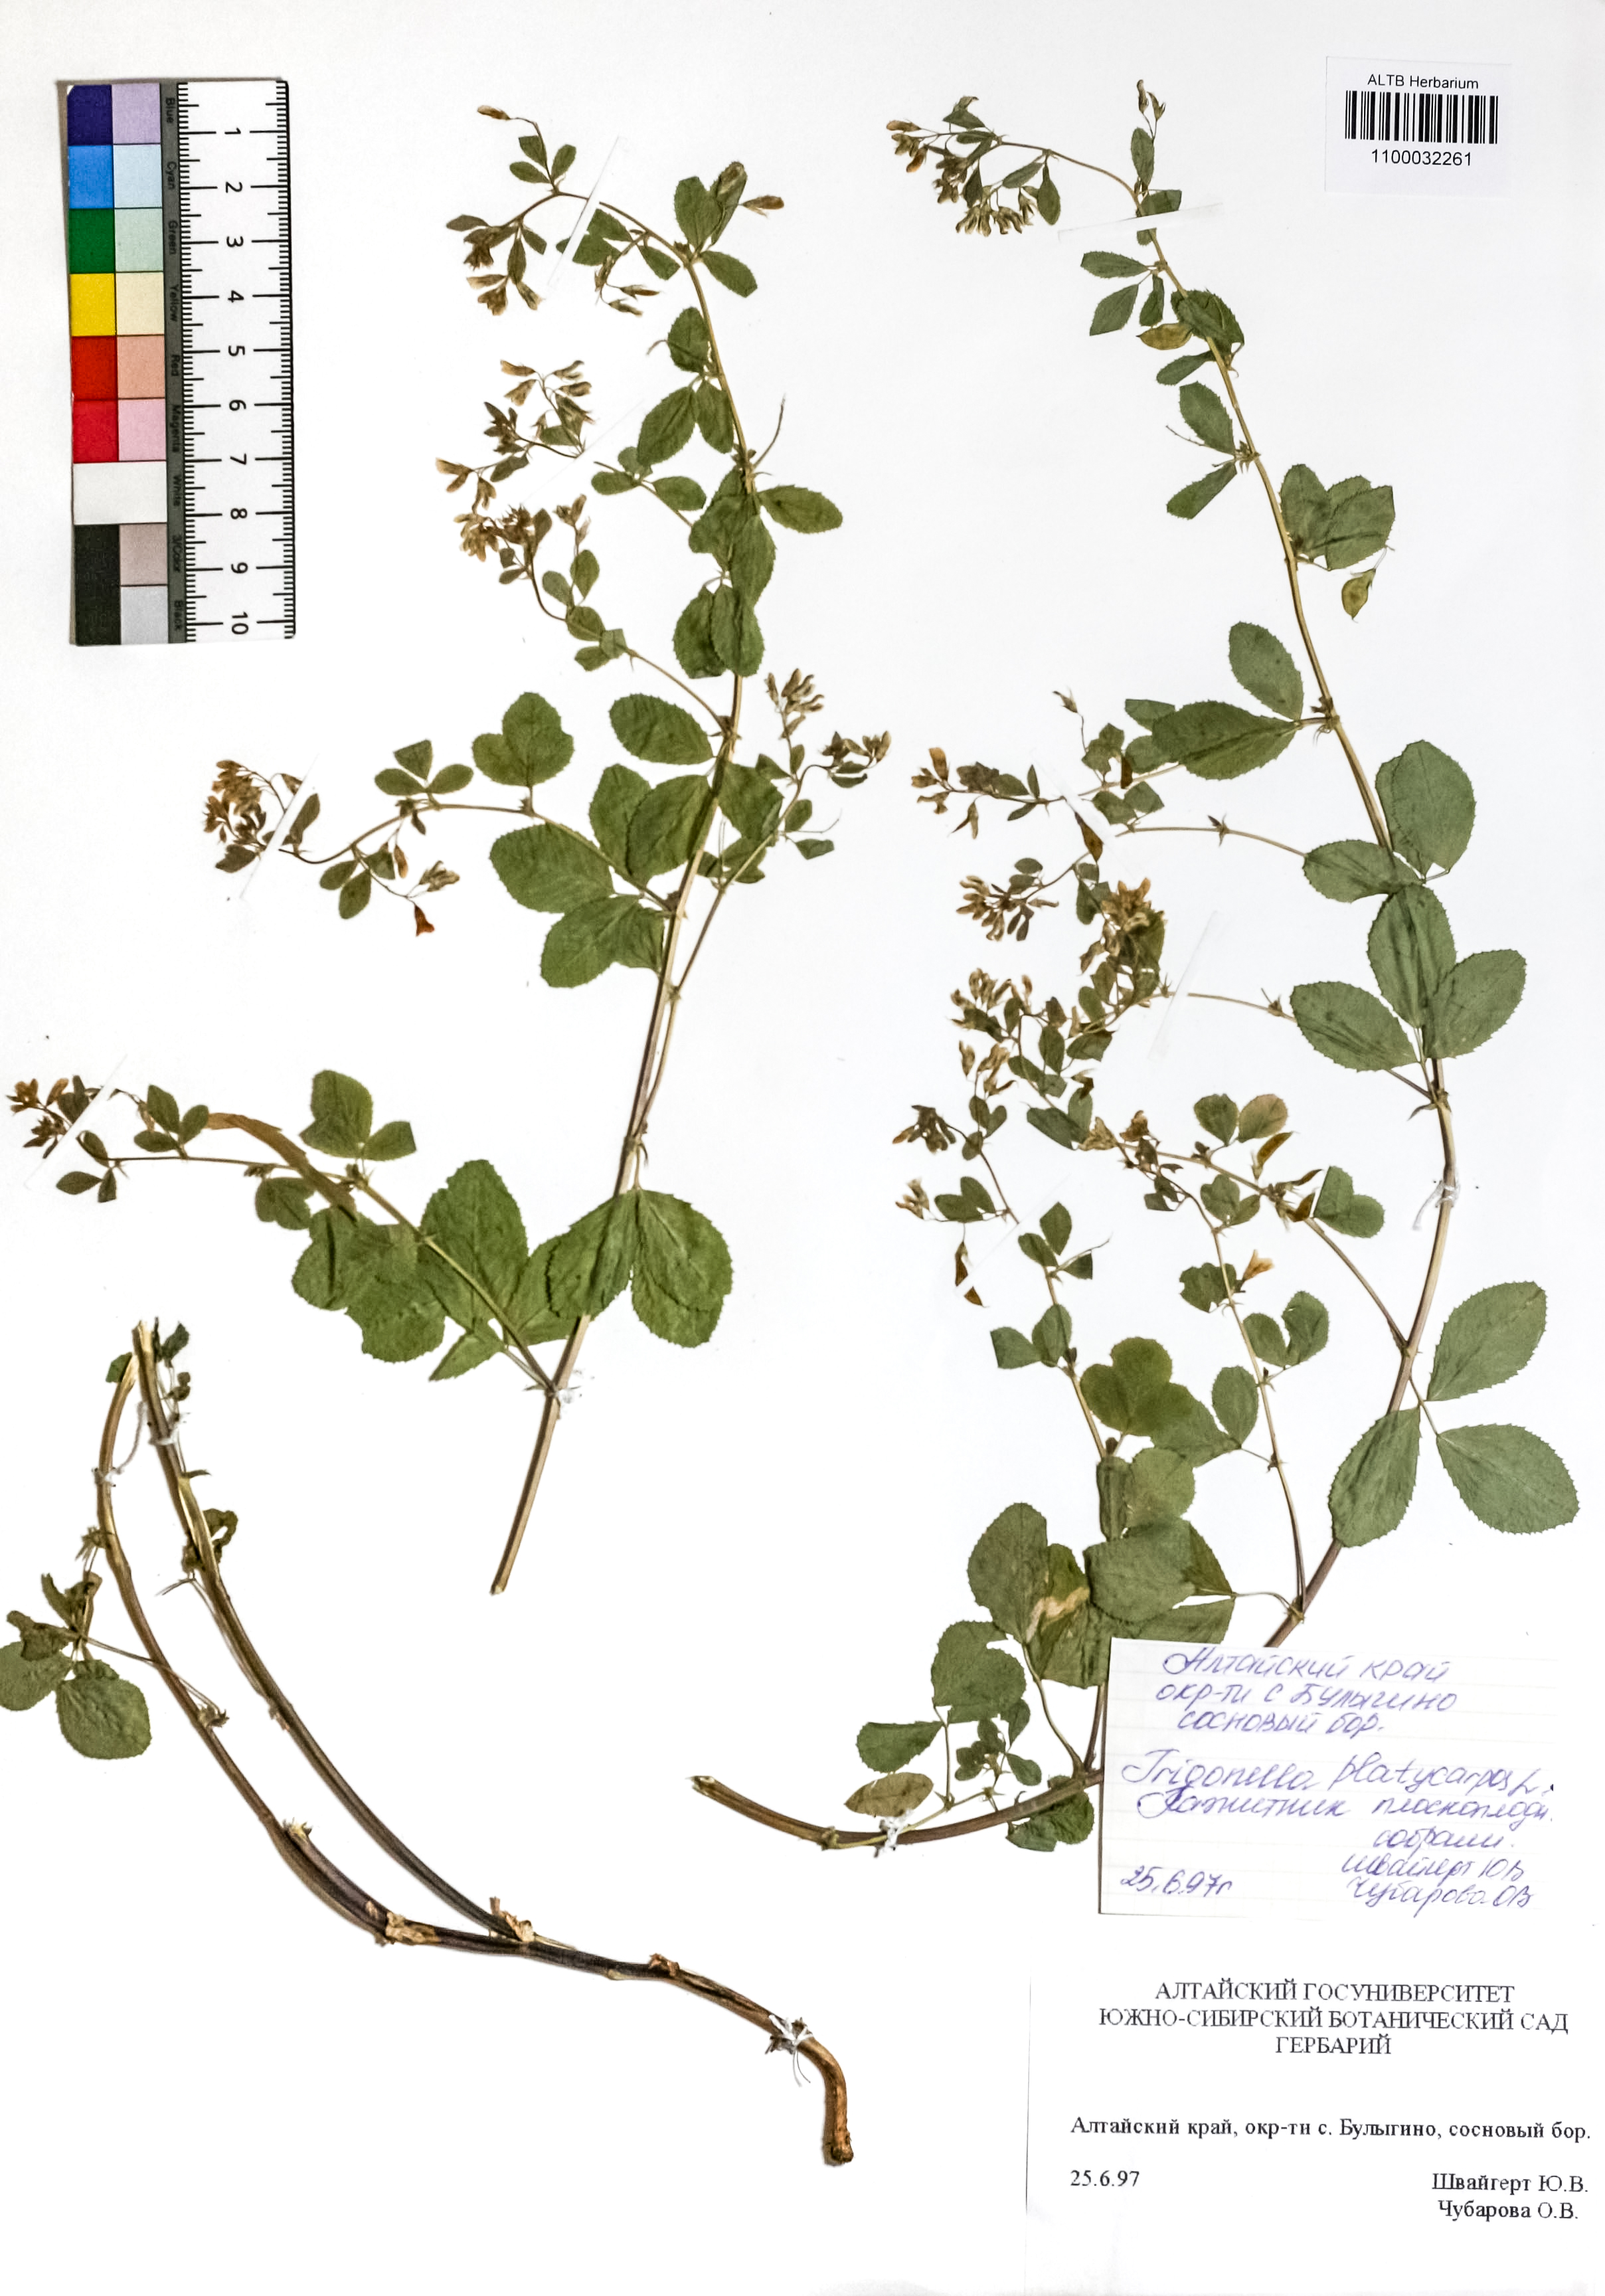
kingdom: Plantae
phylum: Tracheophyta
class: Magnoliopsida
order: Fabales
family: Fabaceae
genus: Medicago
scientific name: Medicago platycarpos
